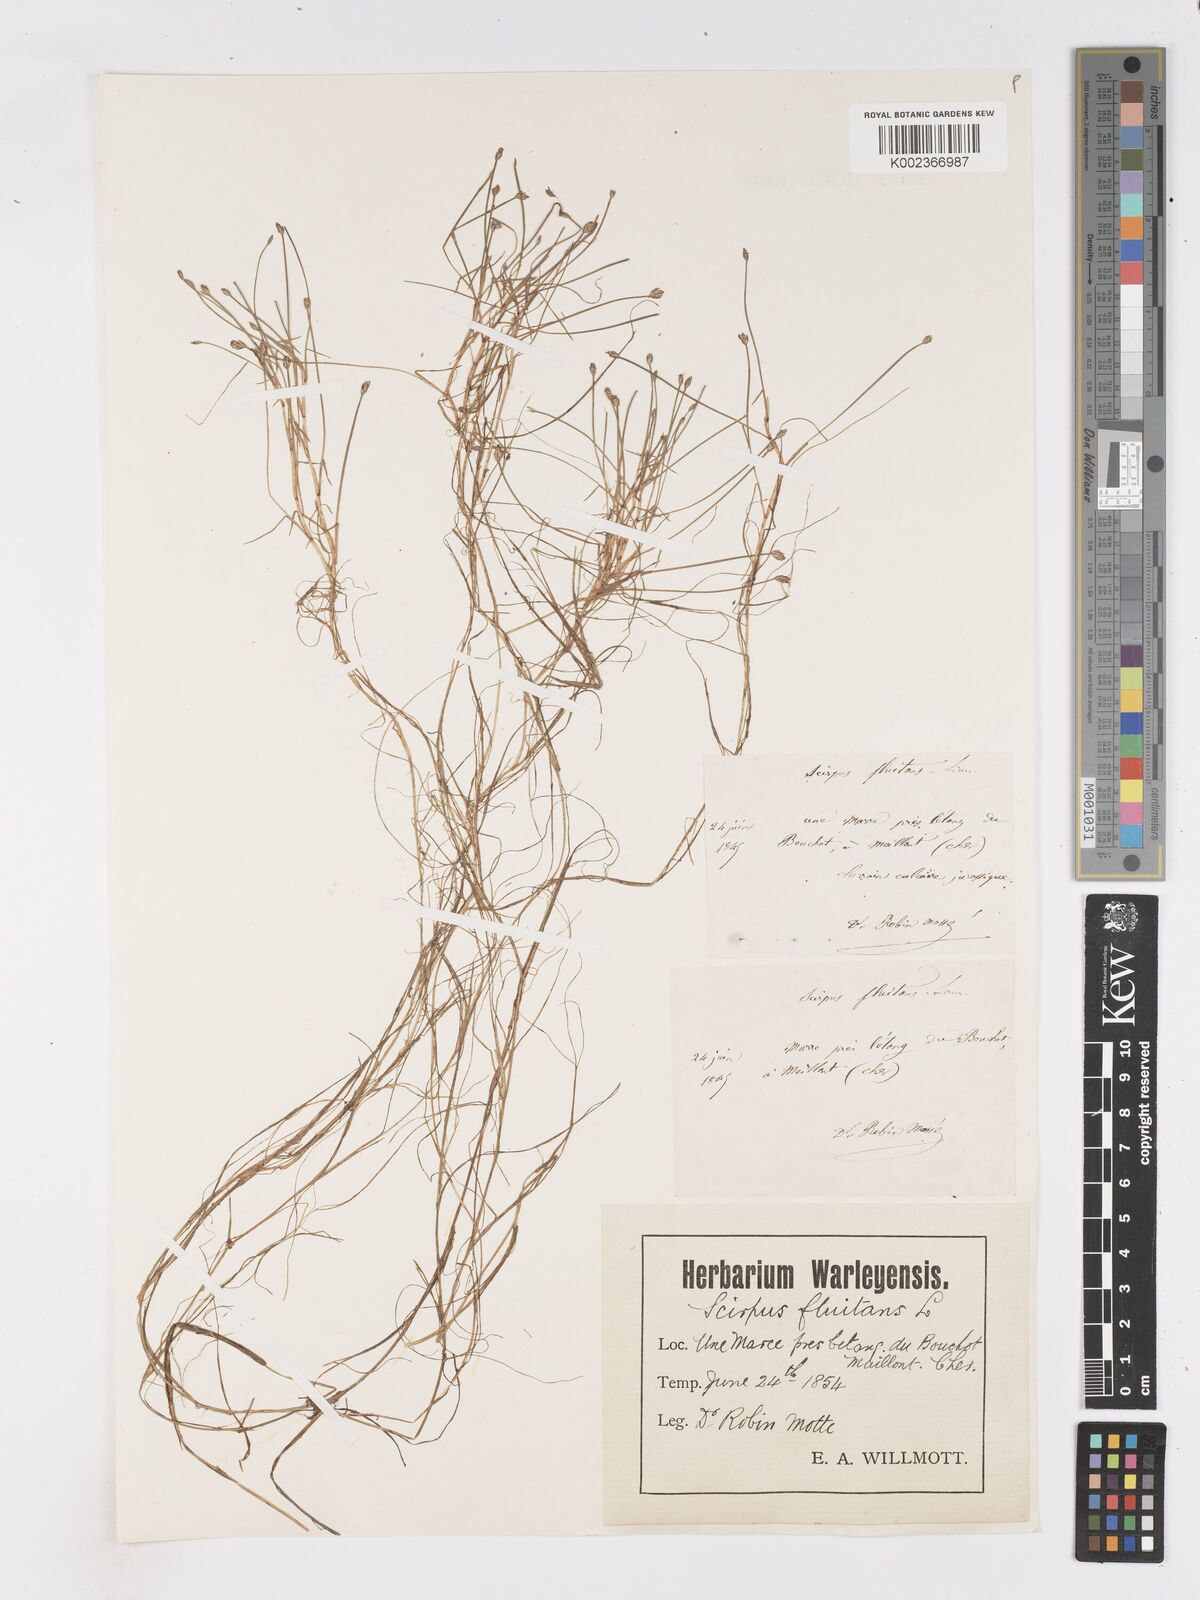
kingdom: Plantae
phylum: Tracheophyta
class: Liliopsida
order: Poales
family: Cyperaceae
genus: Isolepis
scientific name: Isolepis fluitans
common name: Floating club-rush
